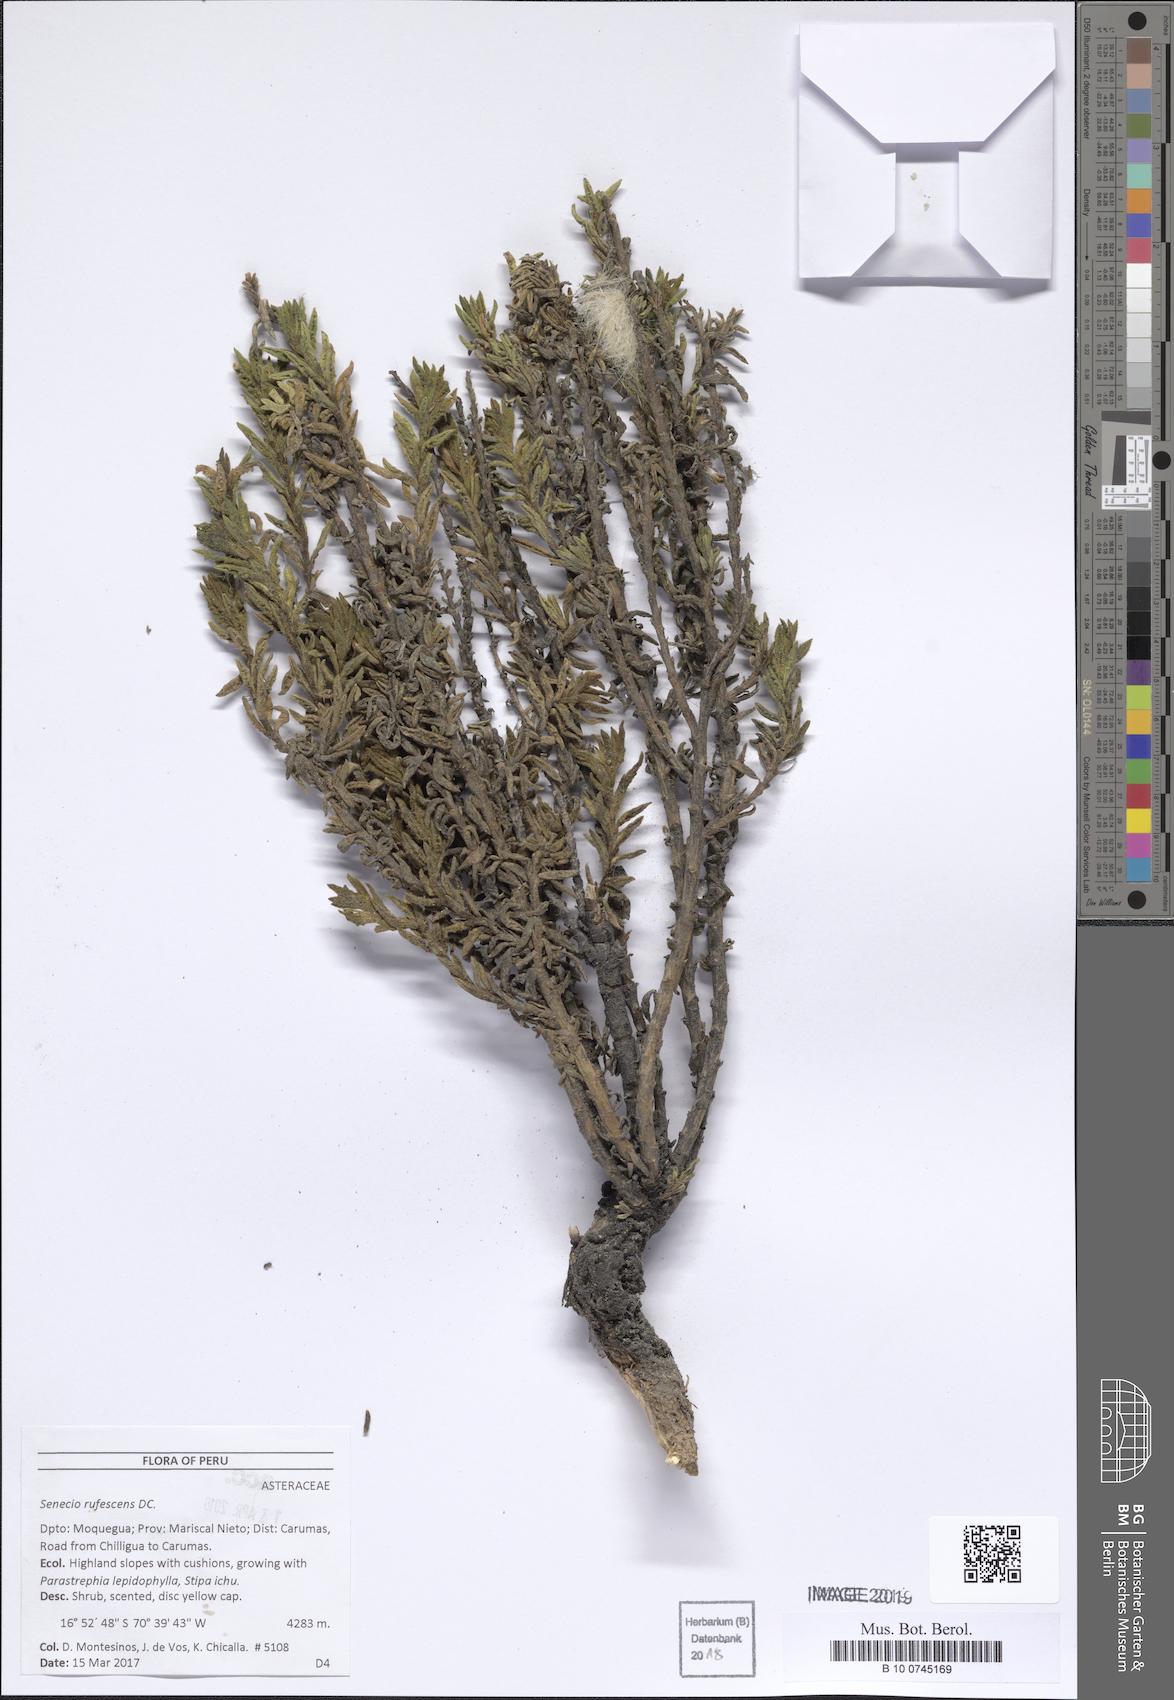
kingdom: Plantae
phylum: Tracheophyta
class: Magnoliopsida
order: Asterales
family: Asteraceae
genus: Senecio
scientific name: Senecio rufescens
